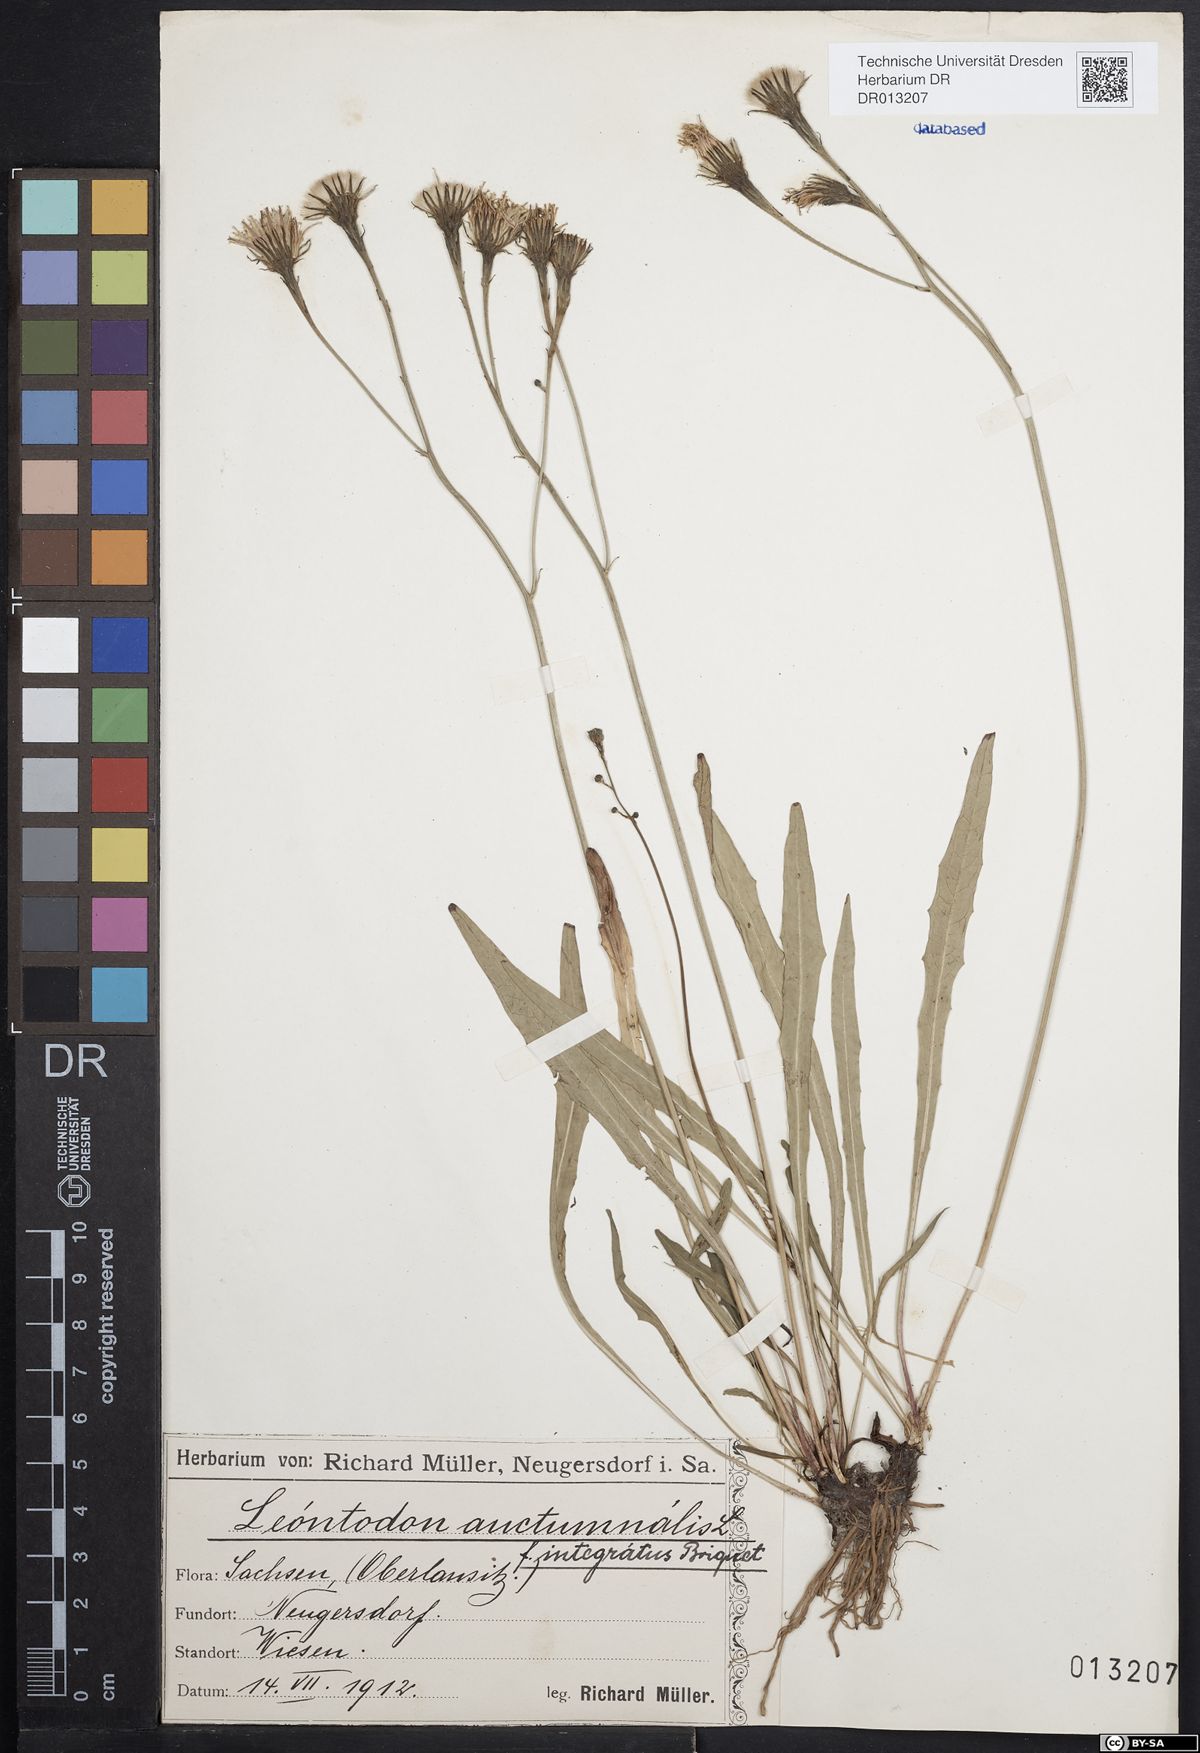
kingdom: Plantae
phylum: Tracheophyta
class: Magnoliopsida
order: Asterales
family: Asteraceae
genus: Scorzoneroides
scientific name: Scorzoneroides autumnalis
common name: Autumn hawkbit
